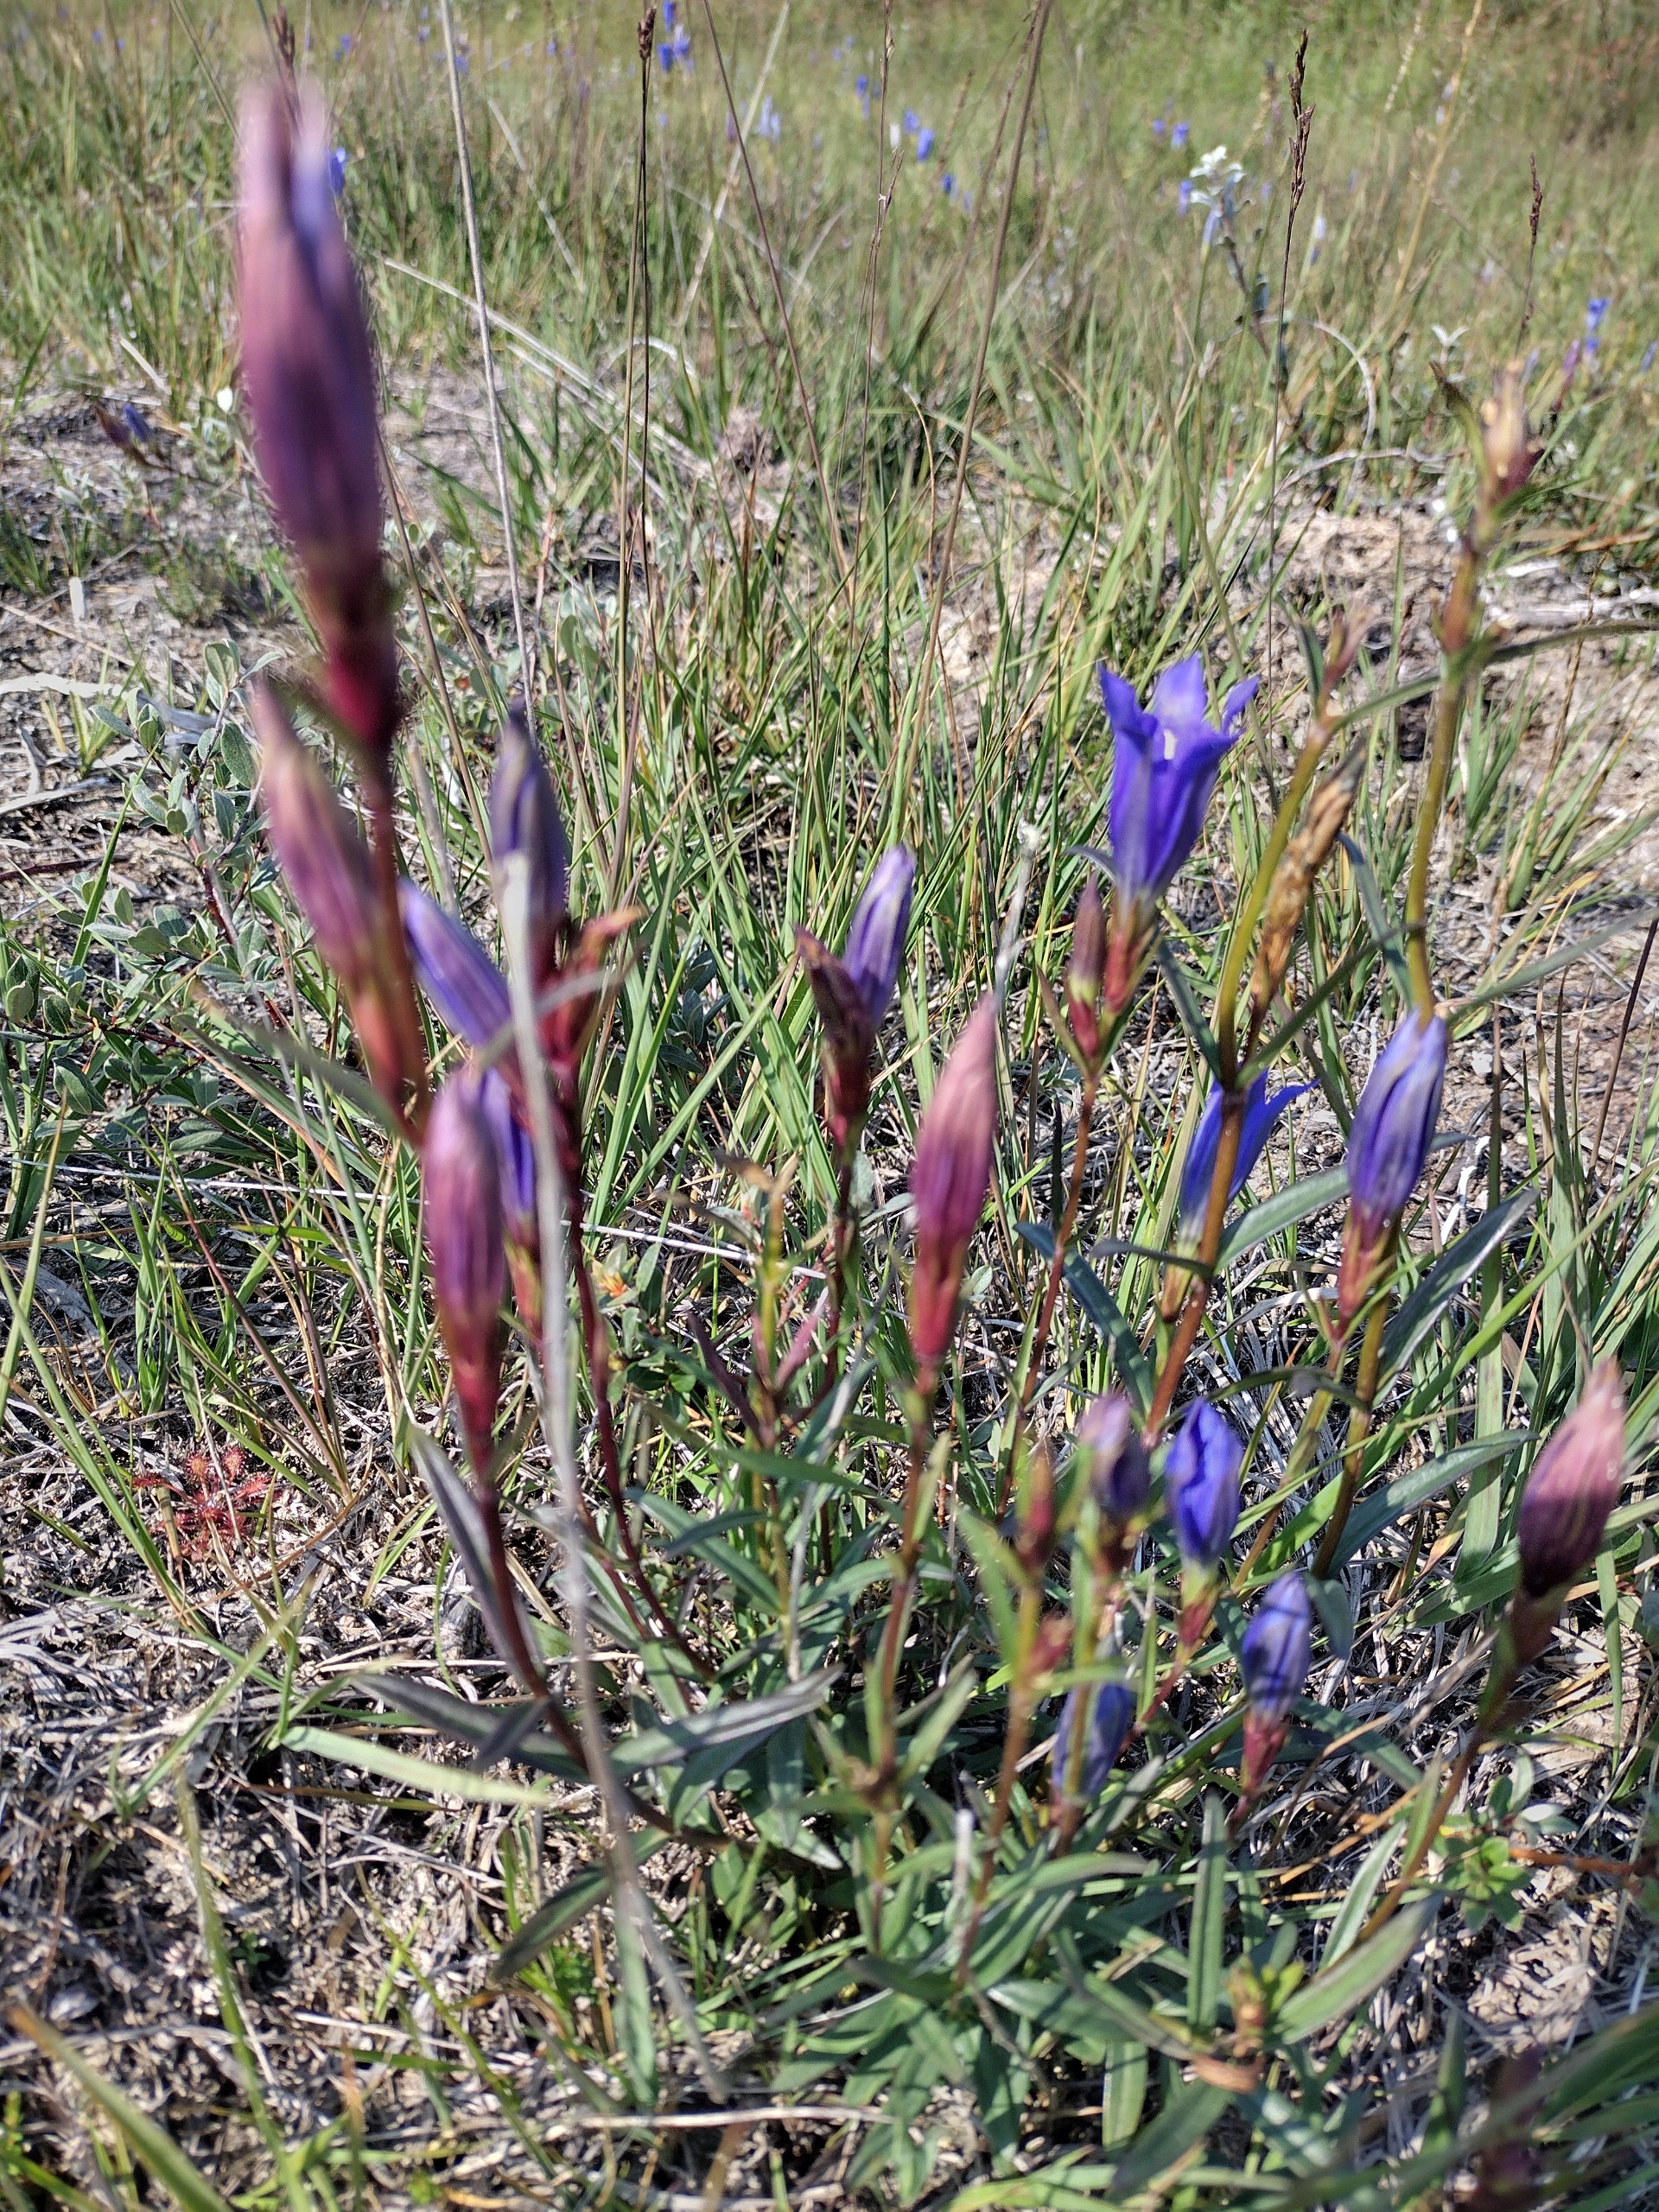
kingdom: Plantae
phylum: Tracheophyta
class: Magnoliopsida
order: Gentianales
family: Gentianaceae
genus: Gentiana
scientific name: Gentiana pneumonanthe
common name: Klokke-ensian
